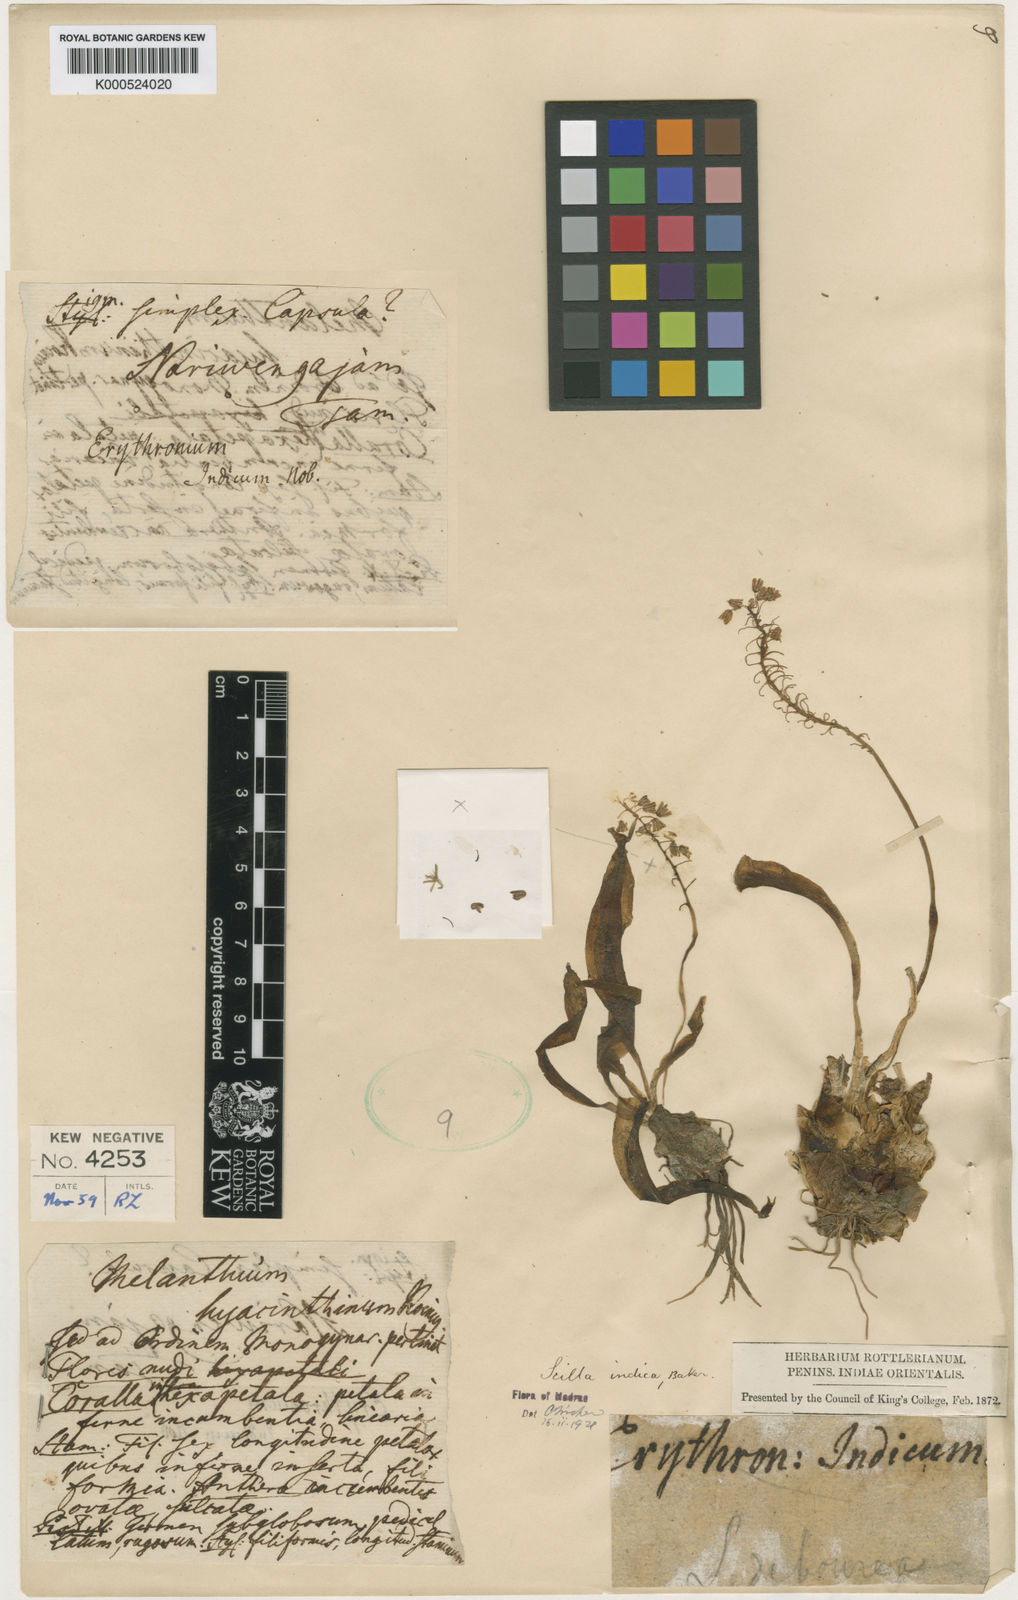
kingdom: Plantae
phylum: Tracheophyta
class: Liliopsida
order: Asparagales
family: Asparagaceae
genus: Ledebouria
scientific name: Ledebouria revoluta
